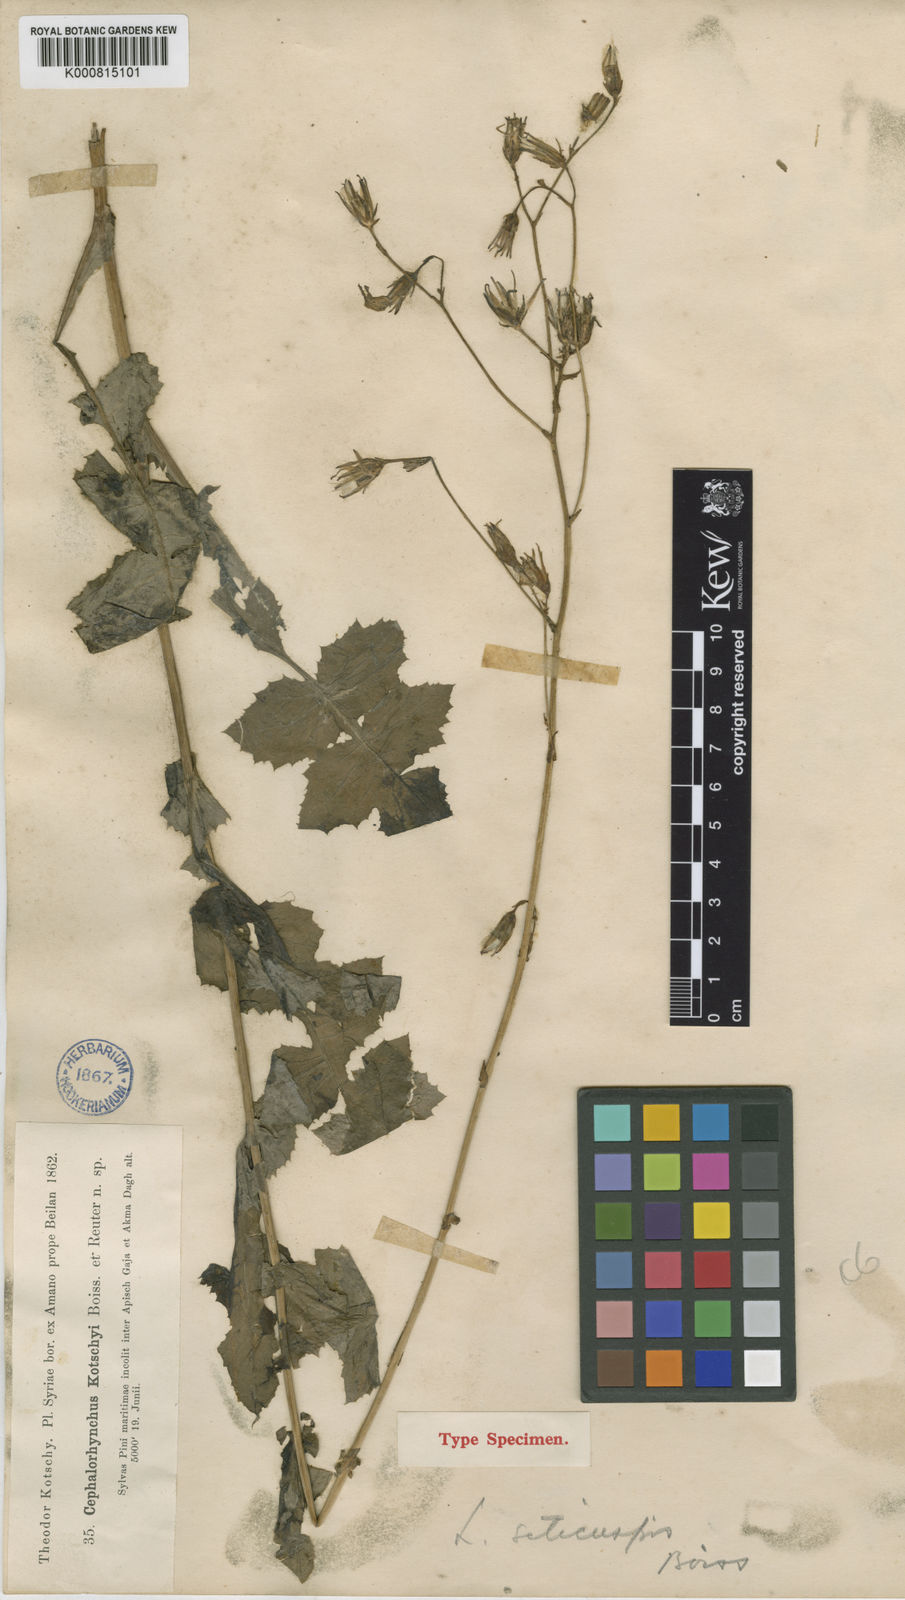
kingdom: Plantae
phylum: Tracheophyta
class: Magnoliopsida
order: Asterales
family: Asteraceae
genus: Lactuca
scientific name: Lactuca mulgedioides
